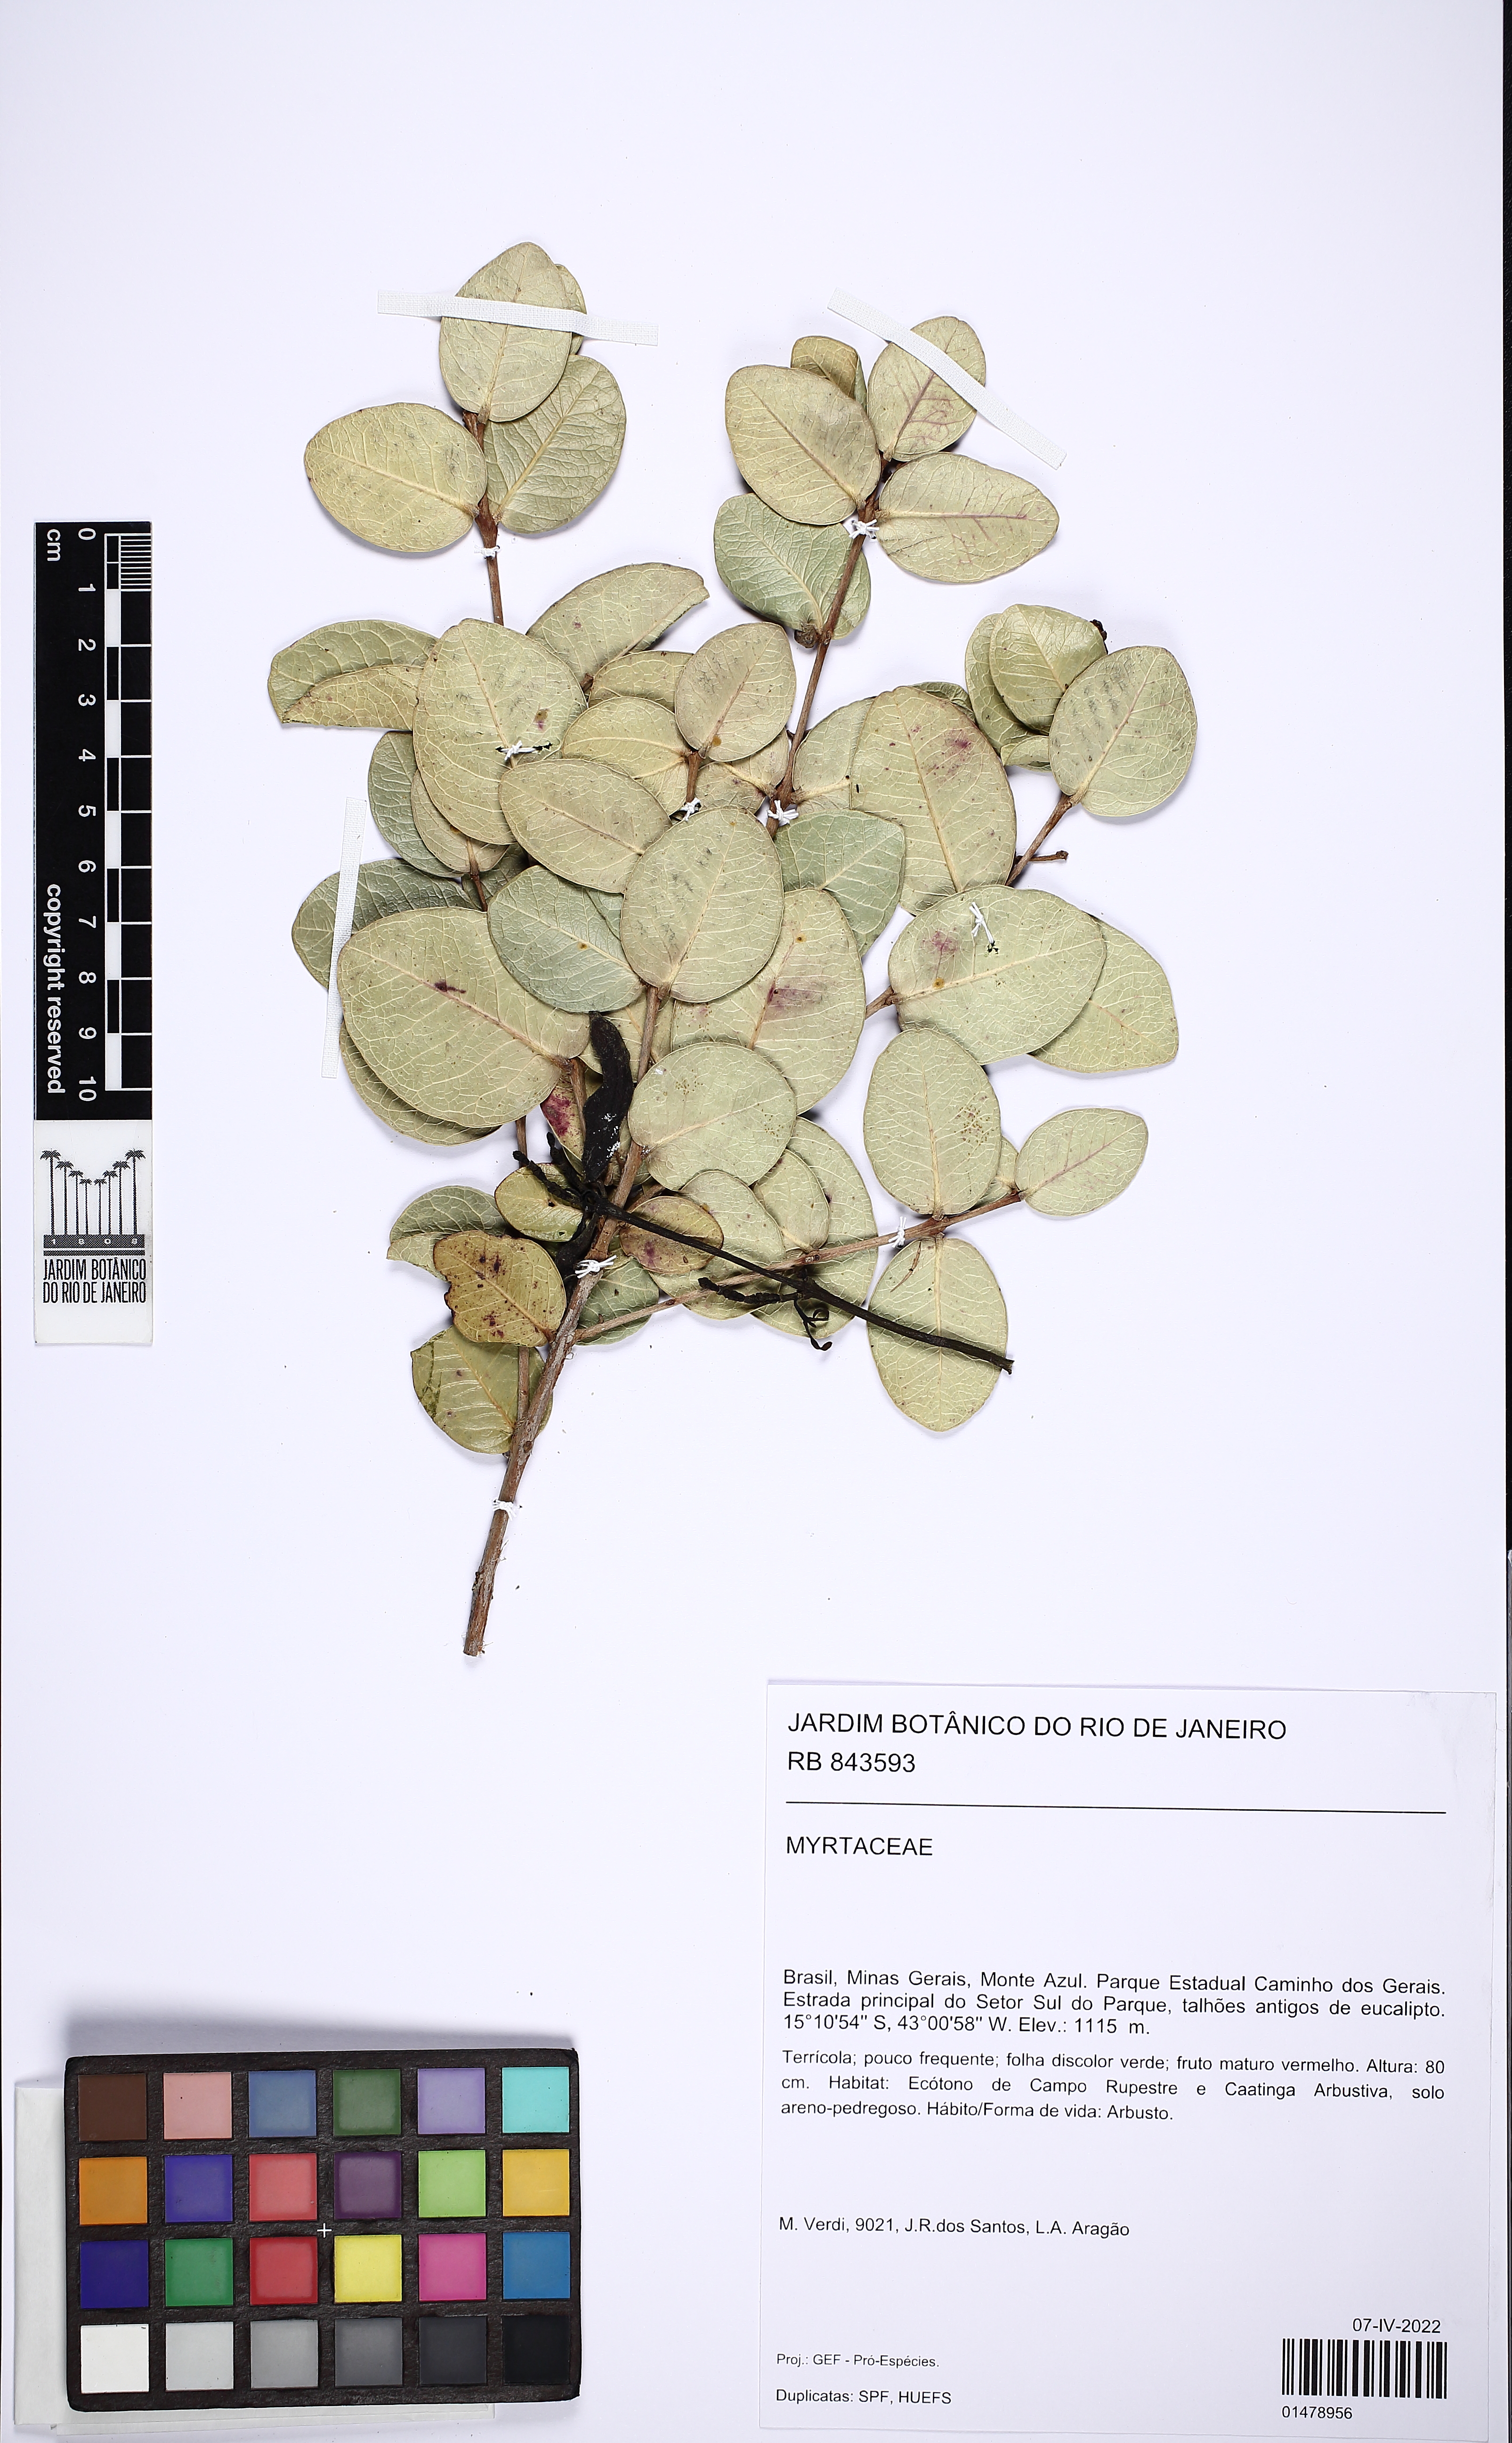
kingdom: Plantae
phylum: Tracheophyta
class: Magnoliopsida
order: Myrtales
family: Myrtaceae
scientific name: Myrtaceae
